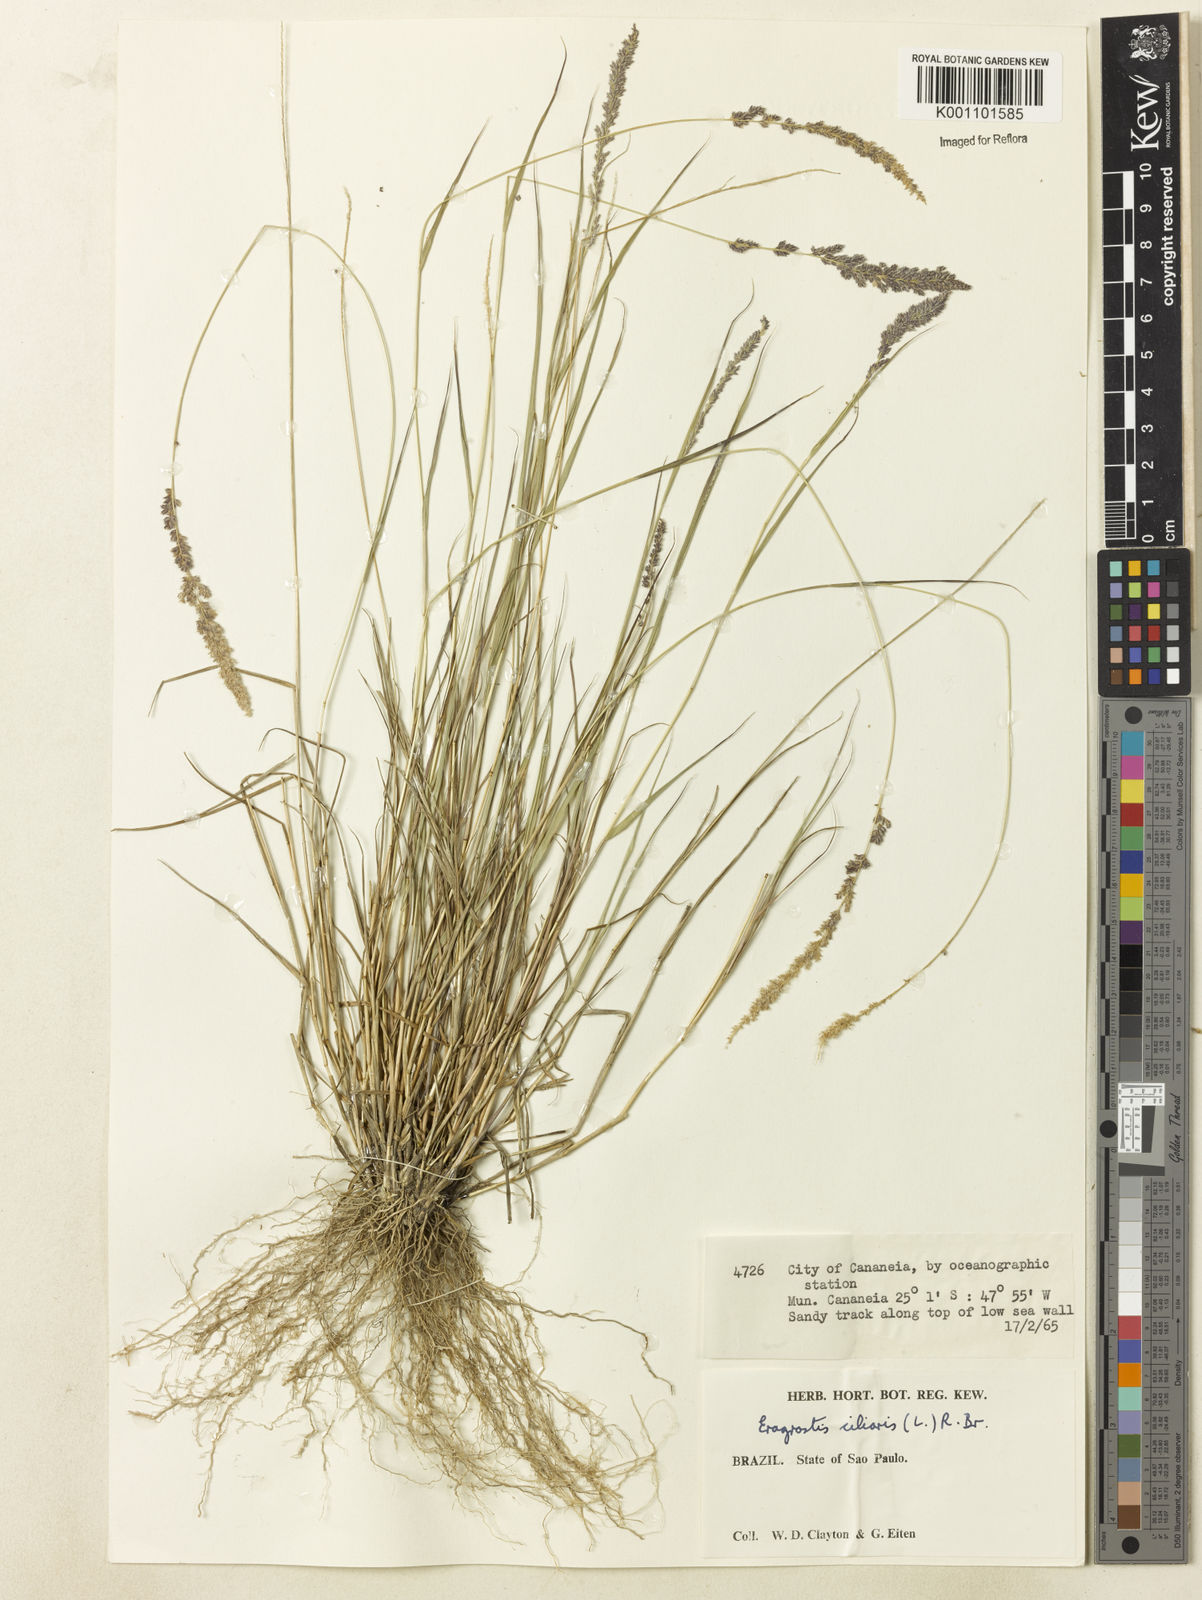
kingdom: Plantae
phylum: Tracheophyta
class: Liliopsida
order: Poales
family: Poaceae
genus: Eragrostis
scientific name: Eragrostis ciliaris
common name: Gophertail lovegrass
